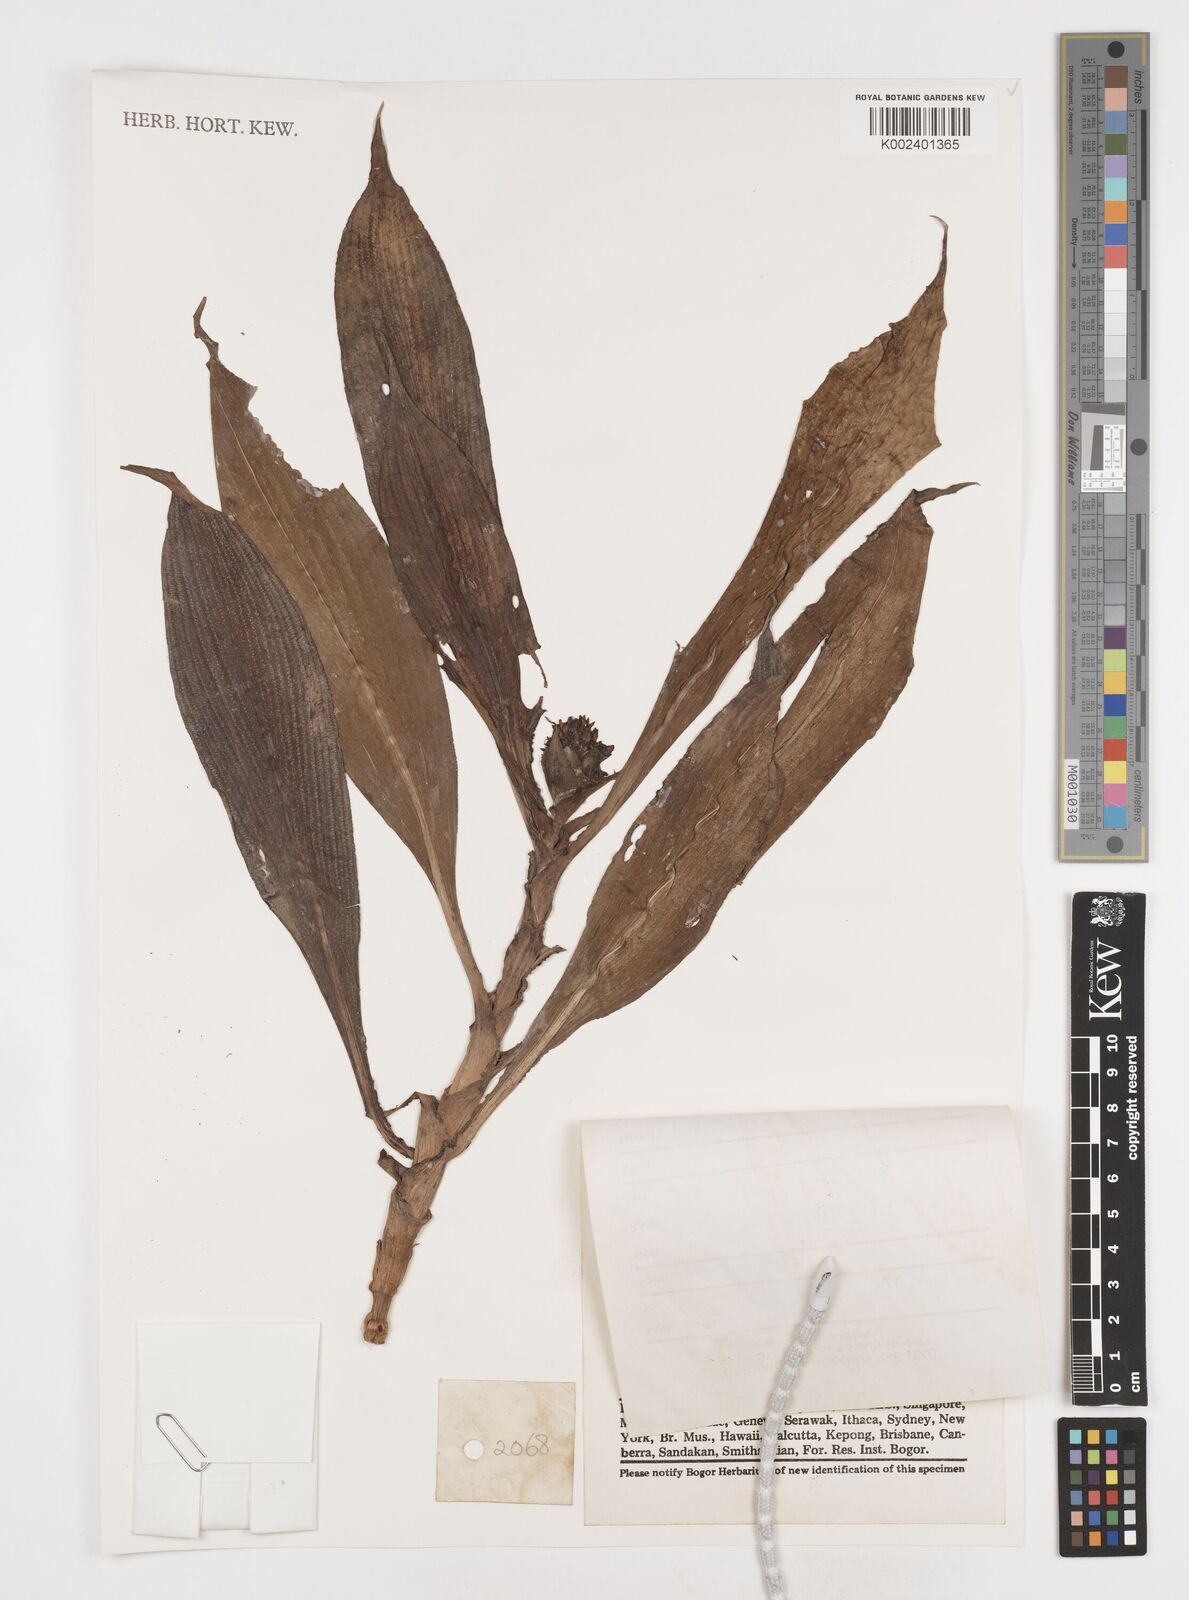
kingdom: Plantae
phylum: Tracheophyta
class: Liliopsida
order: Commelinales
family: Commelinaceae
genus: Pollia
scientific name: Pollia thyrsiflora
